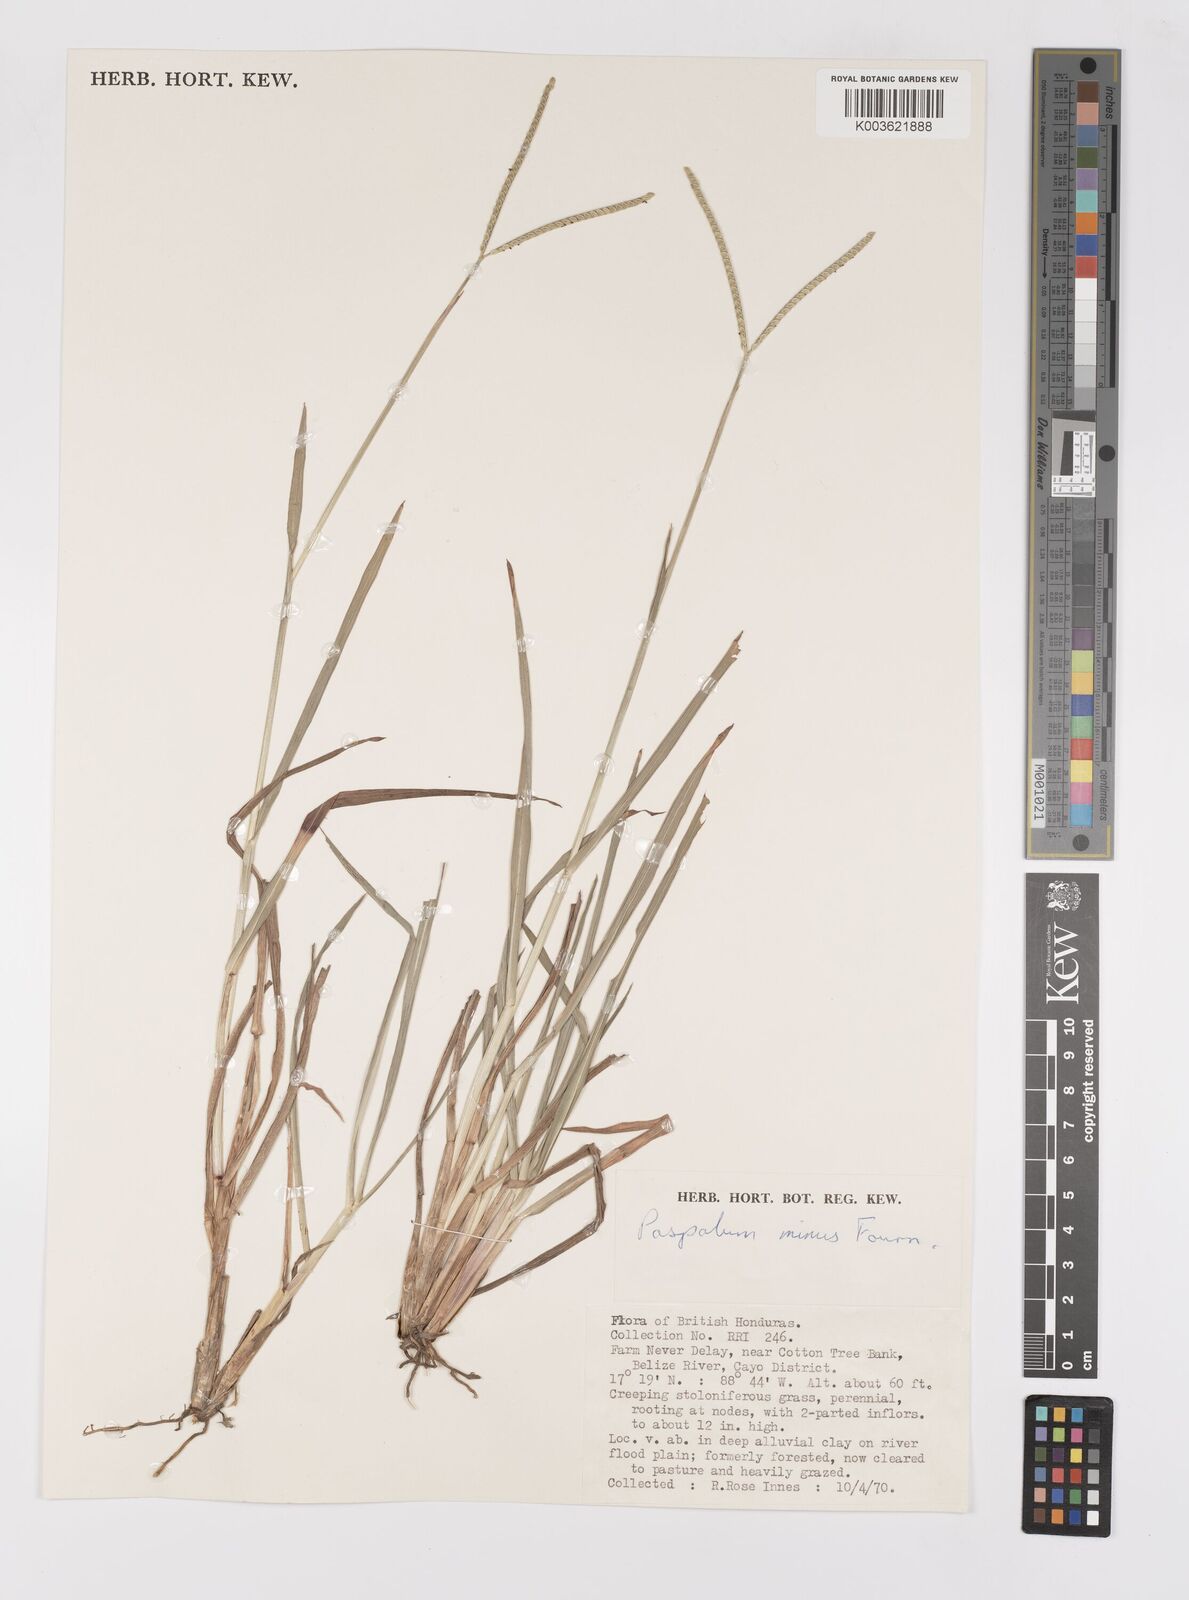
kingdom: Plantae
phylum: Tracheophyta
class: Liliopsida
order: Poales
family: Poaceae
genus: Paspalum
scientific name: Paspalum minus
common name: Matted paspalum
